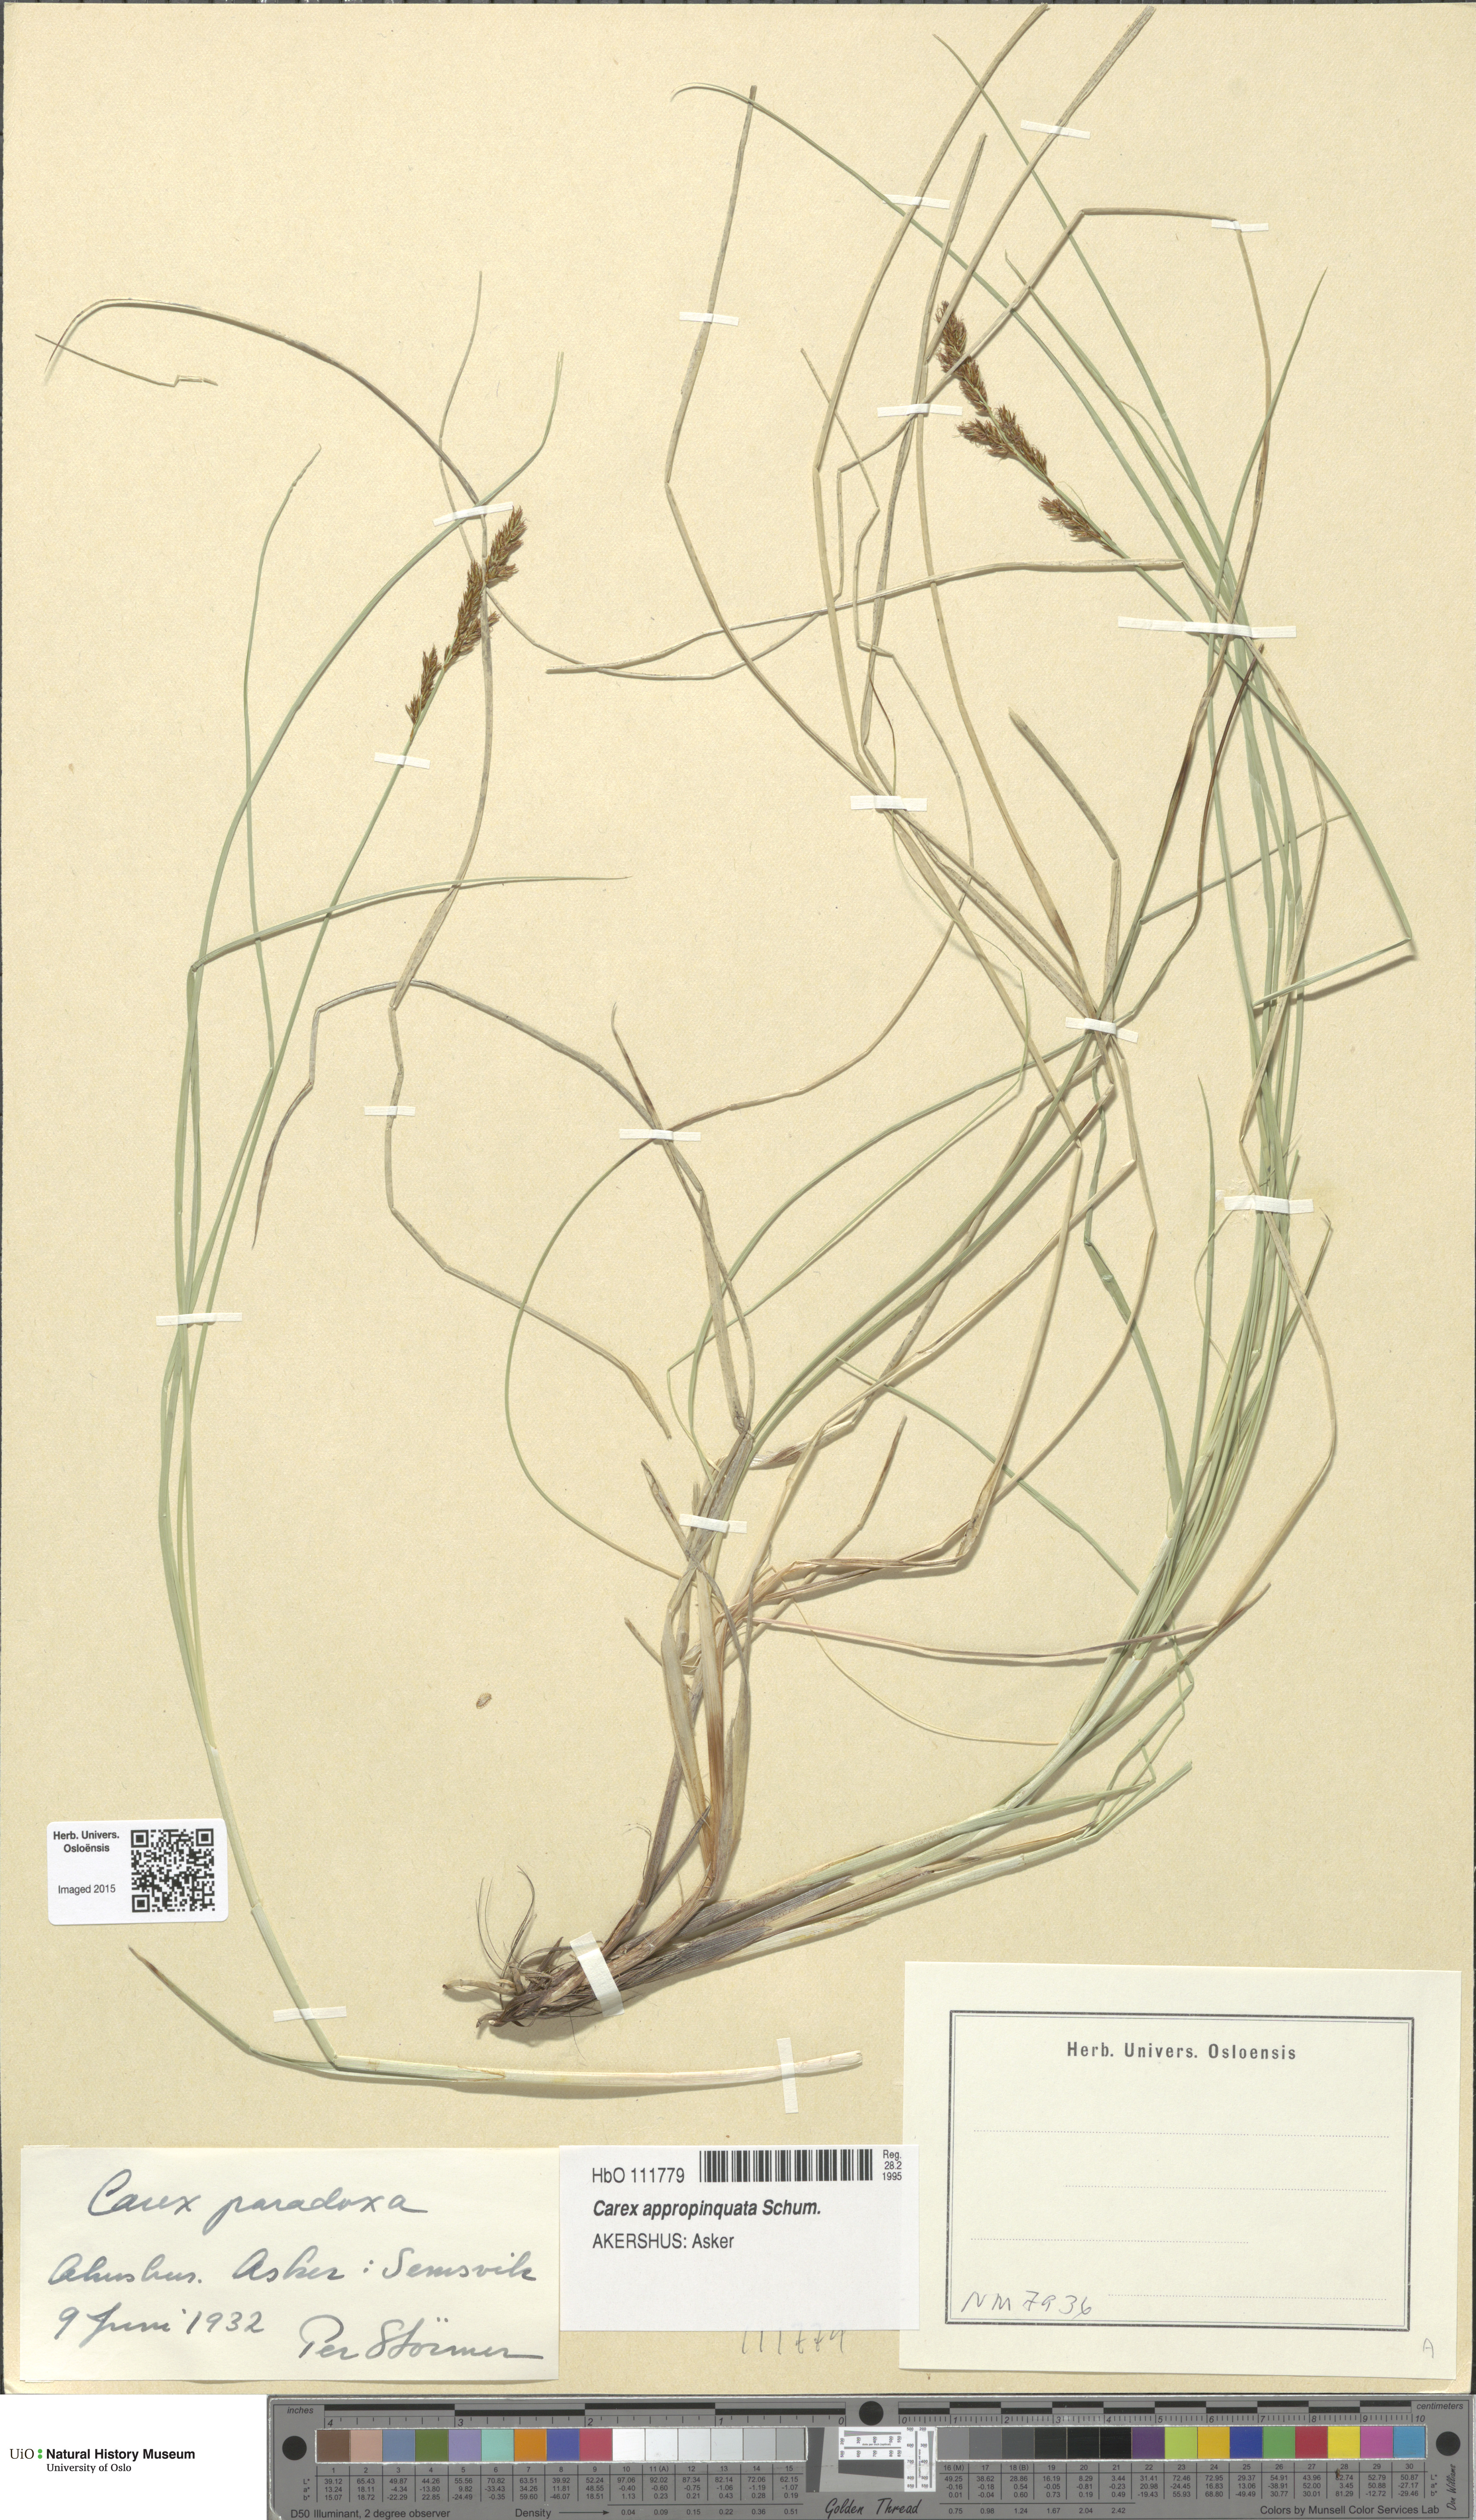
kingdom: Plantae
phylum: Tracheophyta
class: Liliopsida
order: Poales
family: Cyperaceae
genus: Carex
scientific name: Carex appropinquata
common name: Fibrous tussock-sedge
